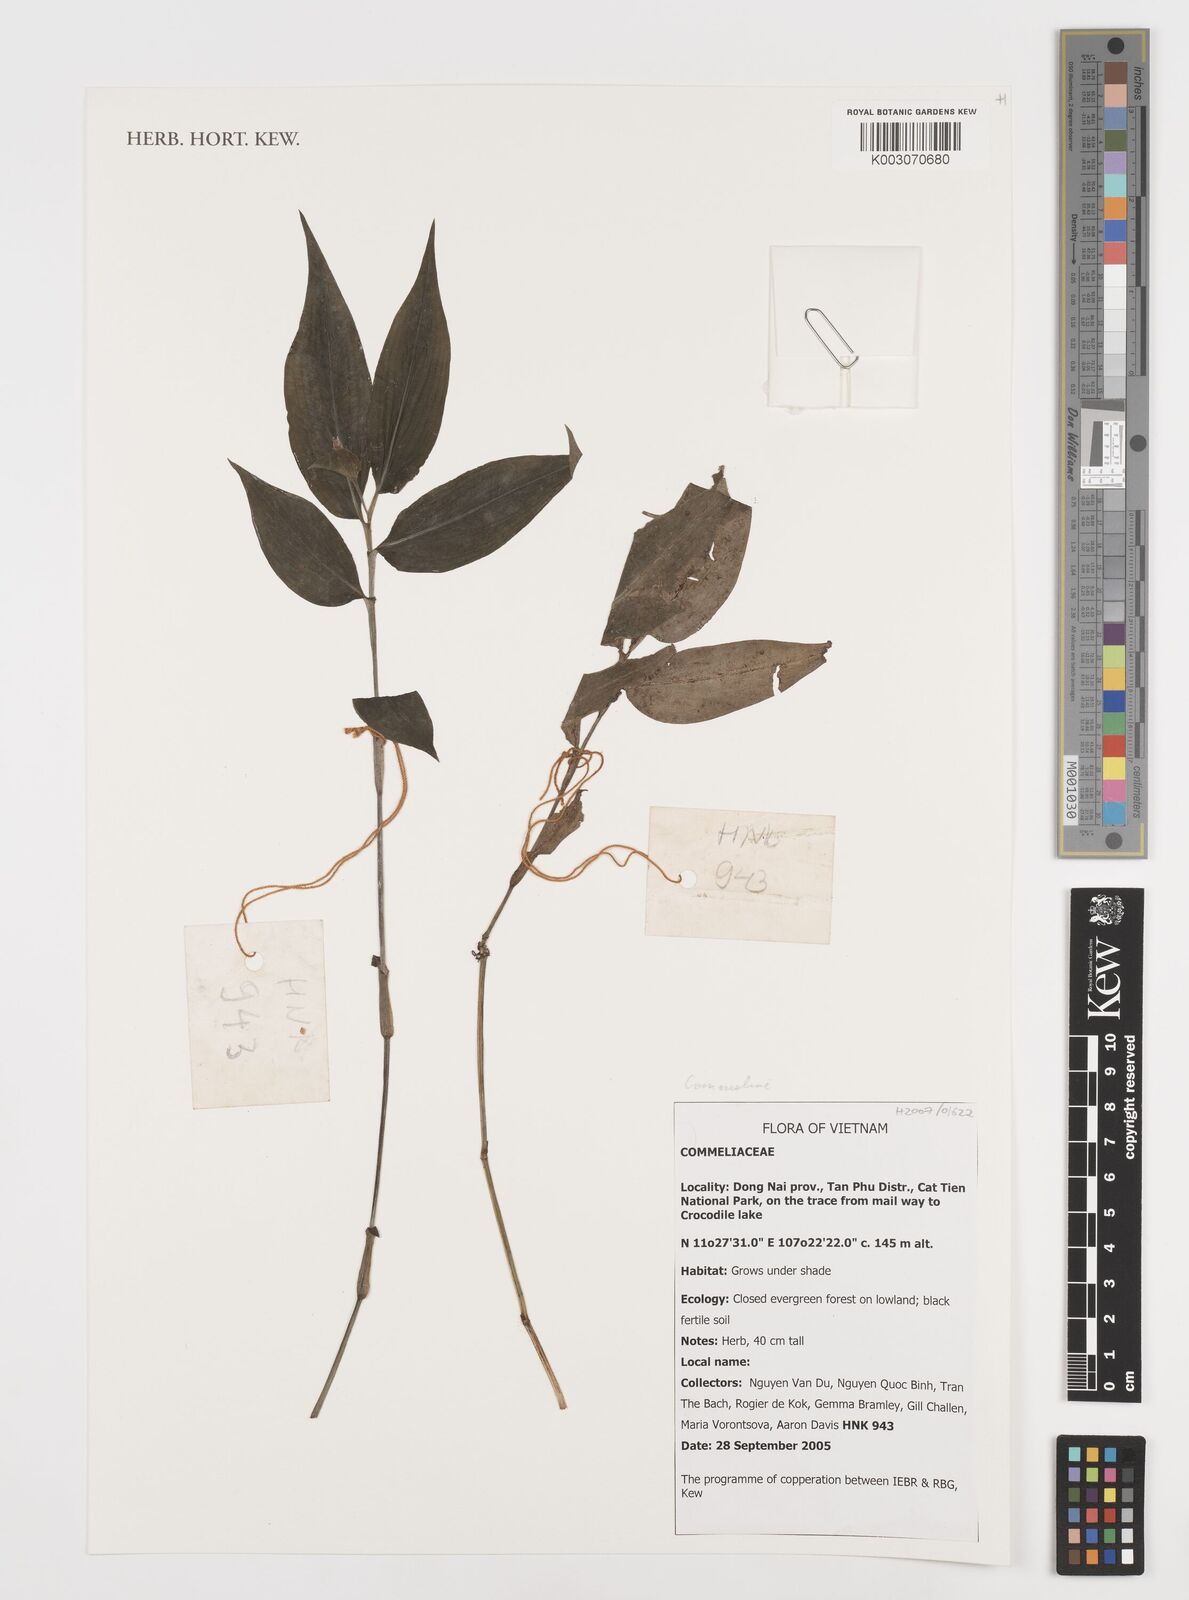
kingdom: Plantae
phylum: Tracheophyta
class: Liliopsida
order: Commelinales
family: Commelinaceae
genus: Commelina
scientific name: Commelina
